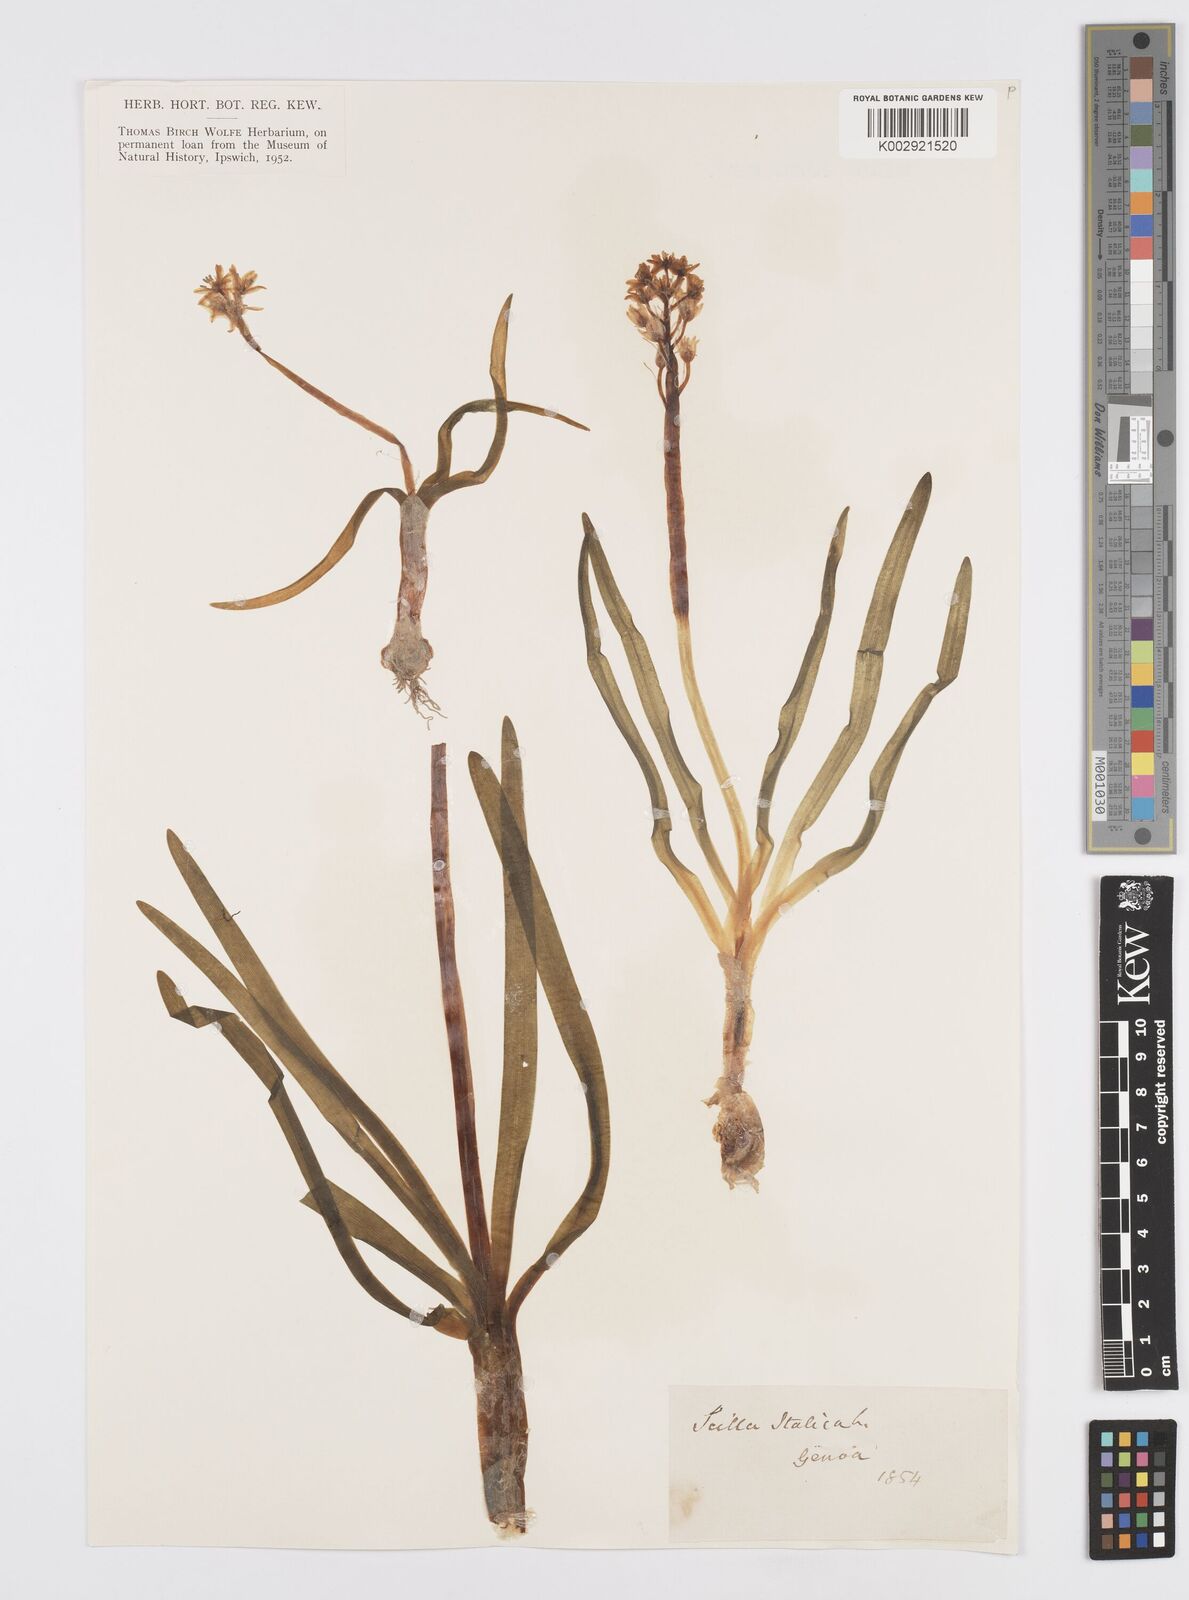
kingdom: Plantae
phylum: Tracheophyta
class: Liliopsida
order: Asparagales
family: Asparagaceae
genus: Hyacinthoides
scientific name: Hyacinthoides italica
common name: Italian bluebell
